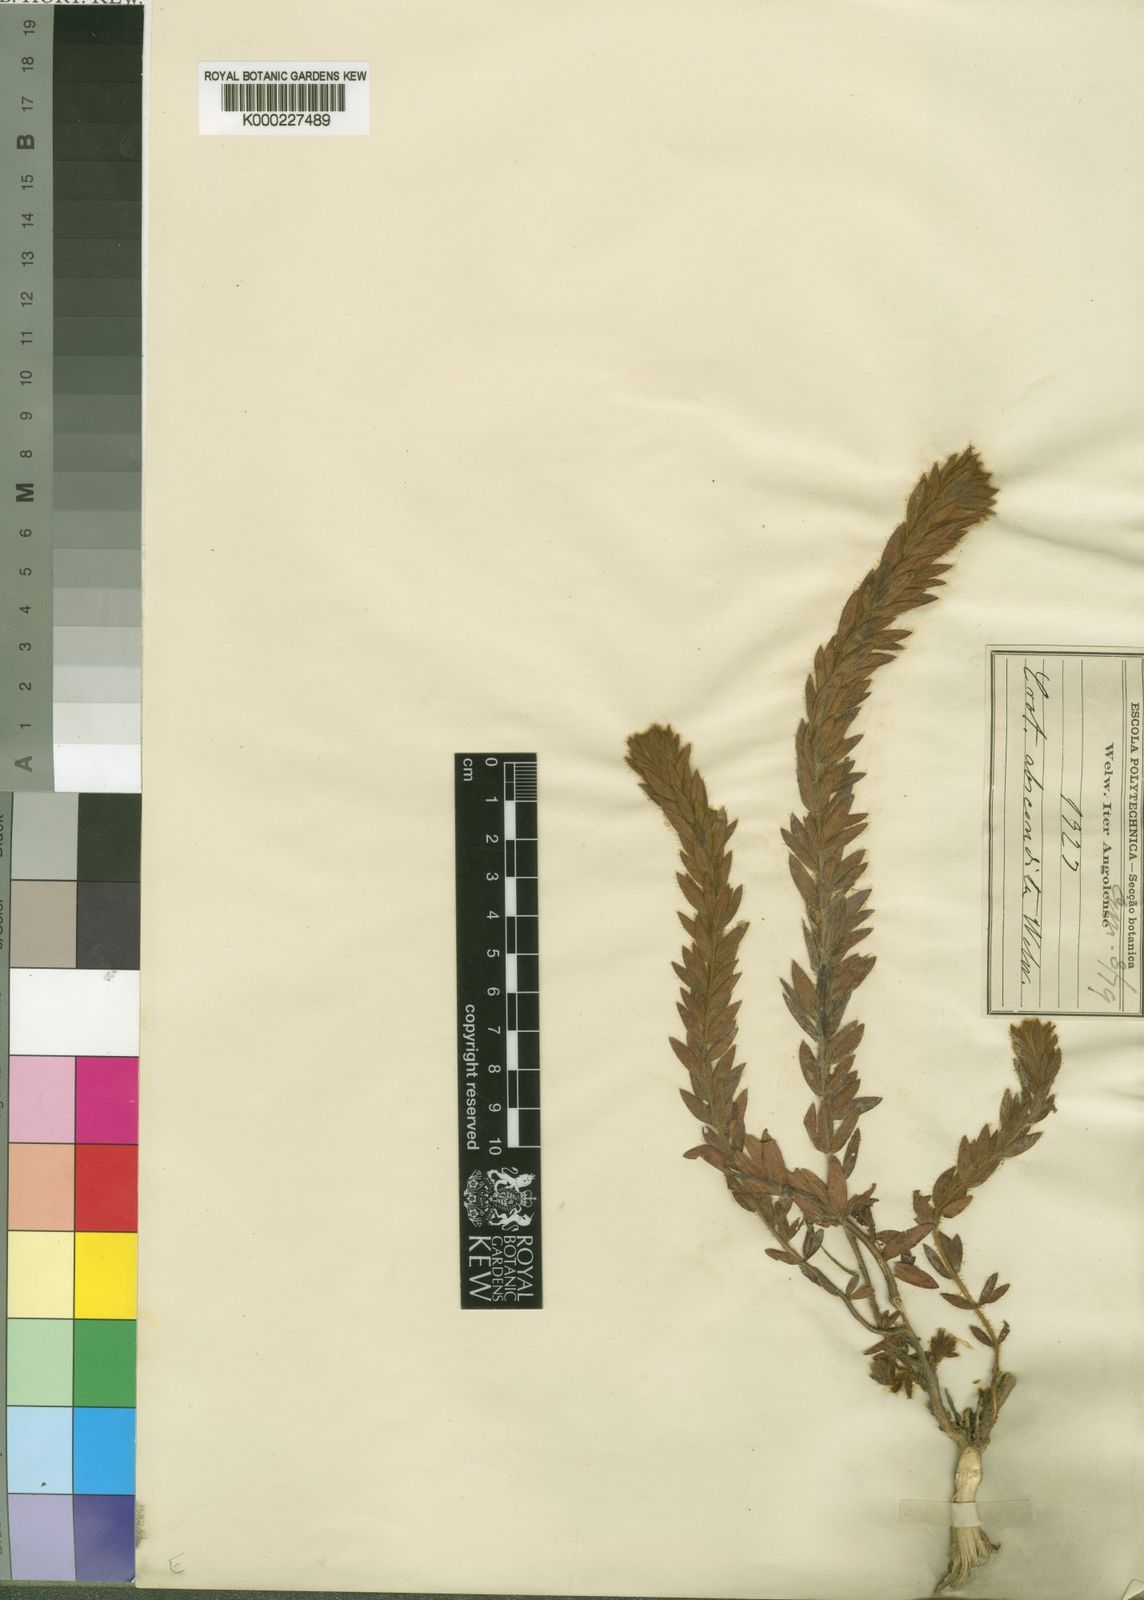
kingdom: Plantae
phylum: Tracheophyta
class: Magnoliopsida
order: Fabales
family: Fabaceae
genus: Crotalaria
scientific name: Crotalaria abscondita
